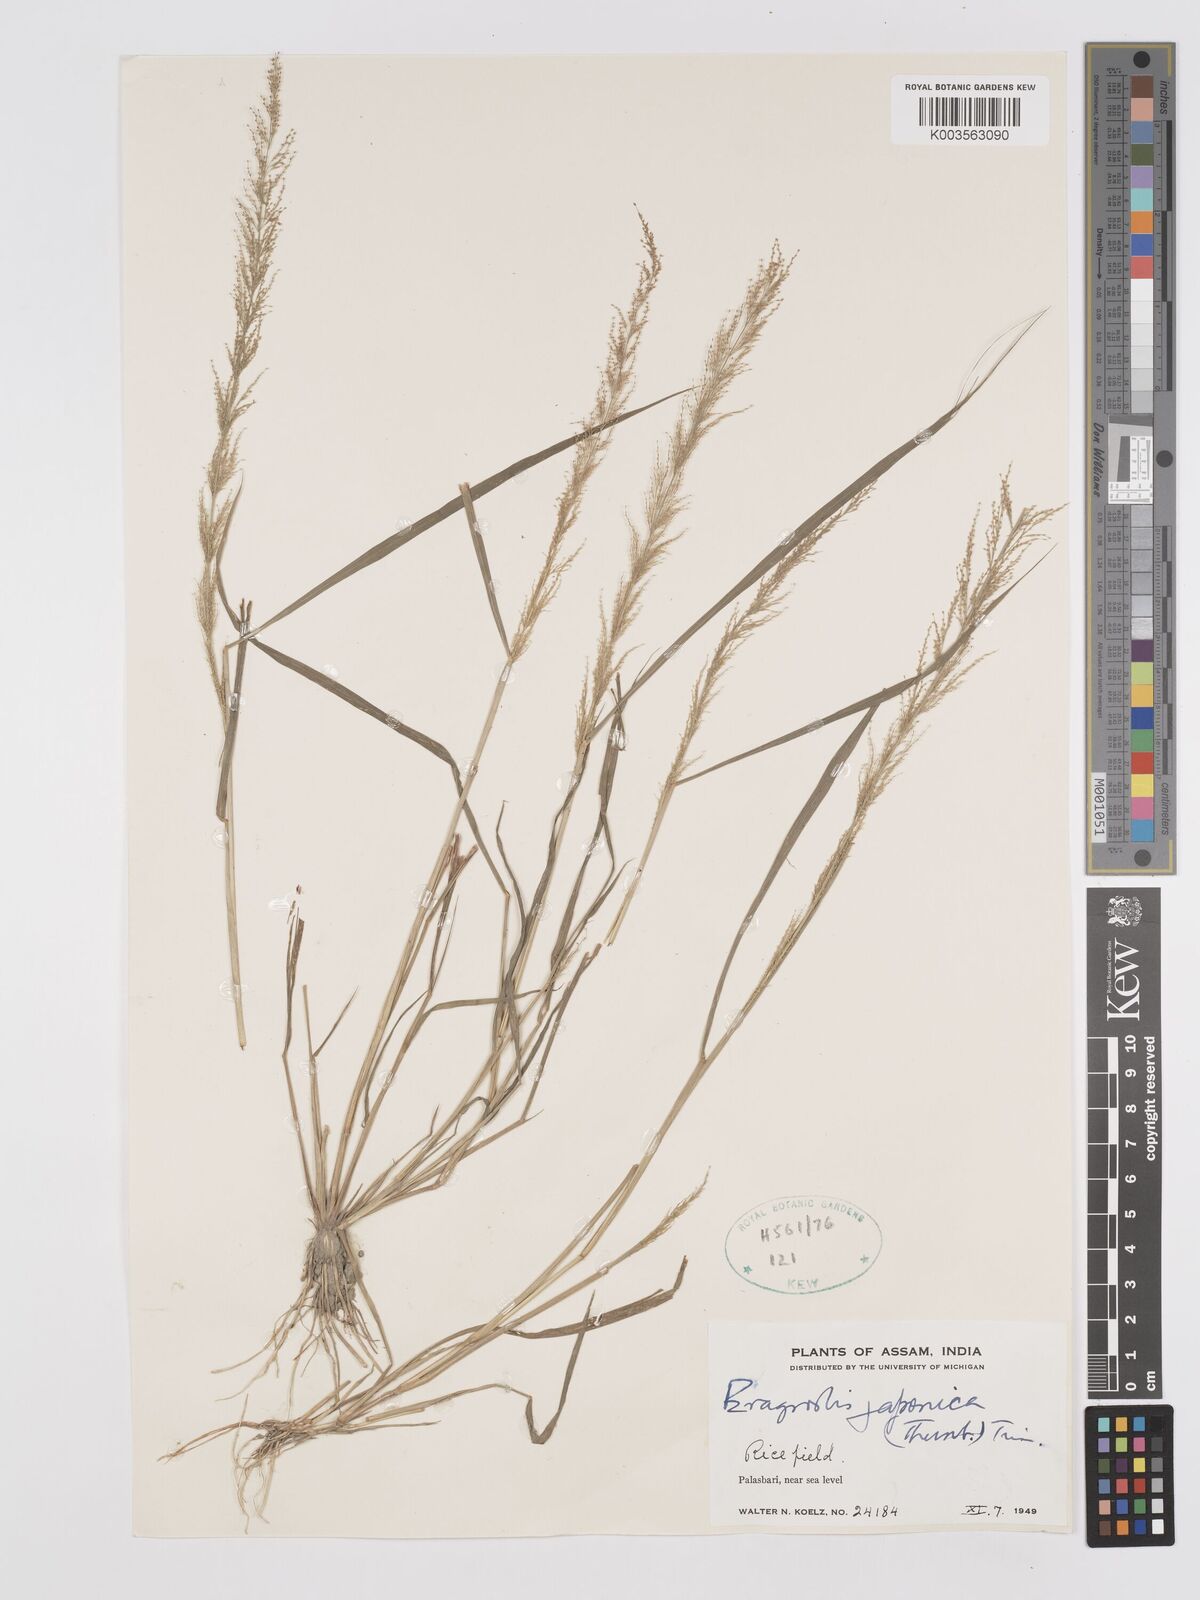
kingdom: Plantae
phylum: Tracheophyta
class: Liliopsida
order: Poales
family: Poaceae
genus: Eragrostis
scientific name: Eragrostis japonica
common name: Pond lovegrass
